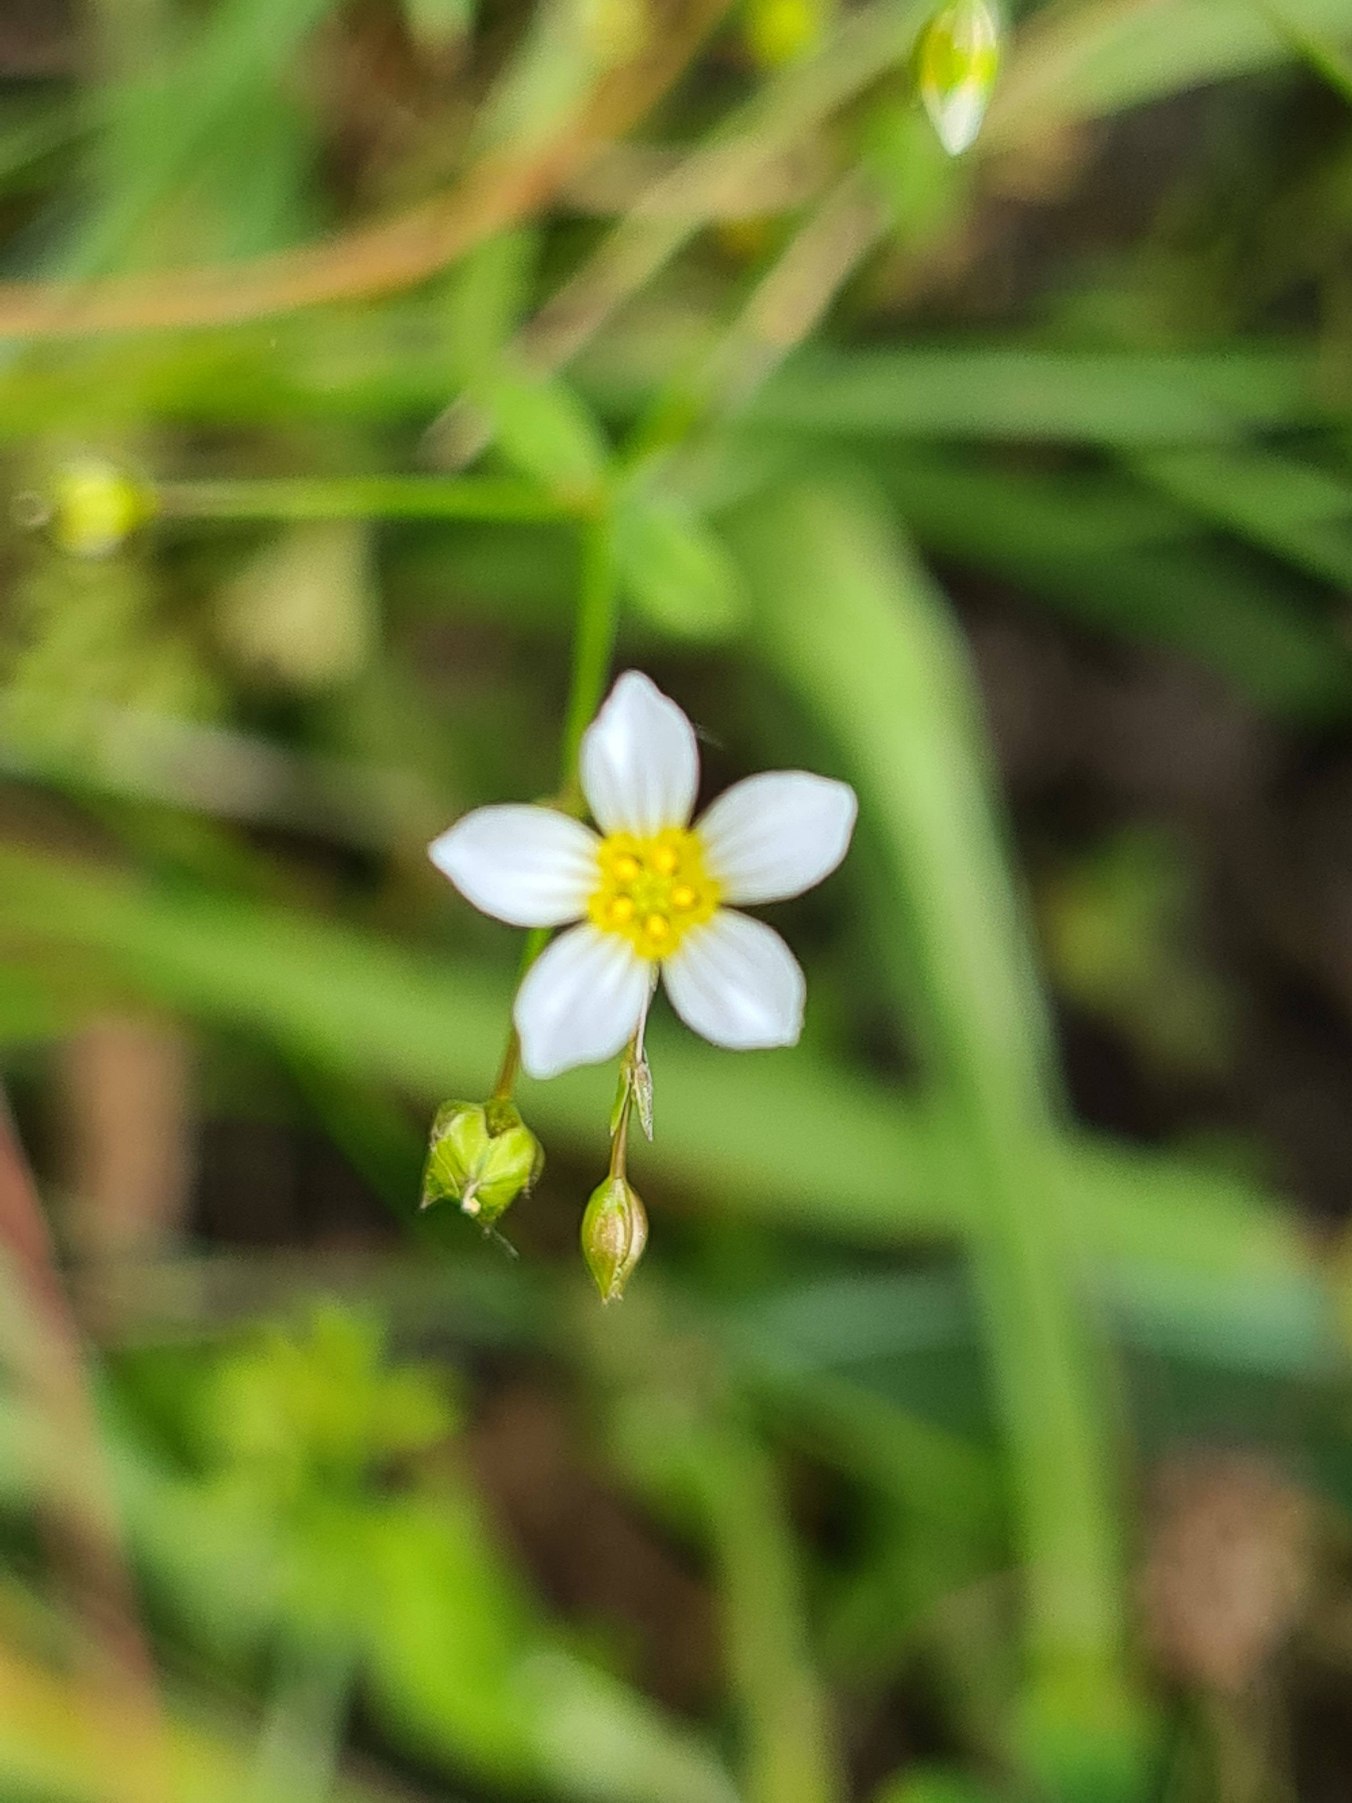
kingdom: Plantae
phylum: Tracheophyta
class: Magnoliopsida
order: Malpighiales
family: Linaceae
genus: Linum
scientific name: Linum catharticum
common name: Vild hør
